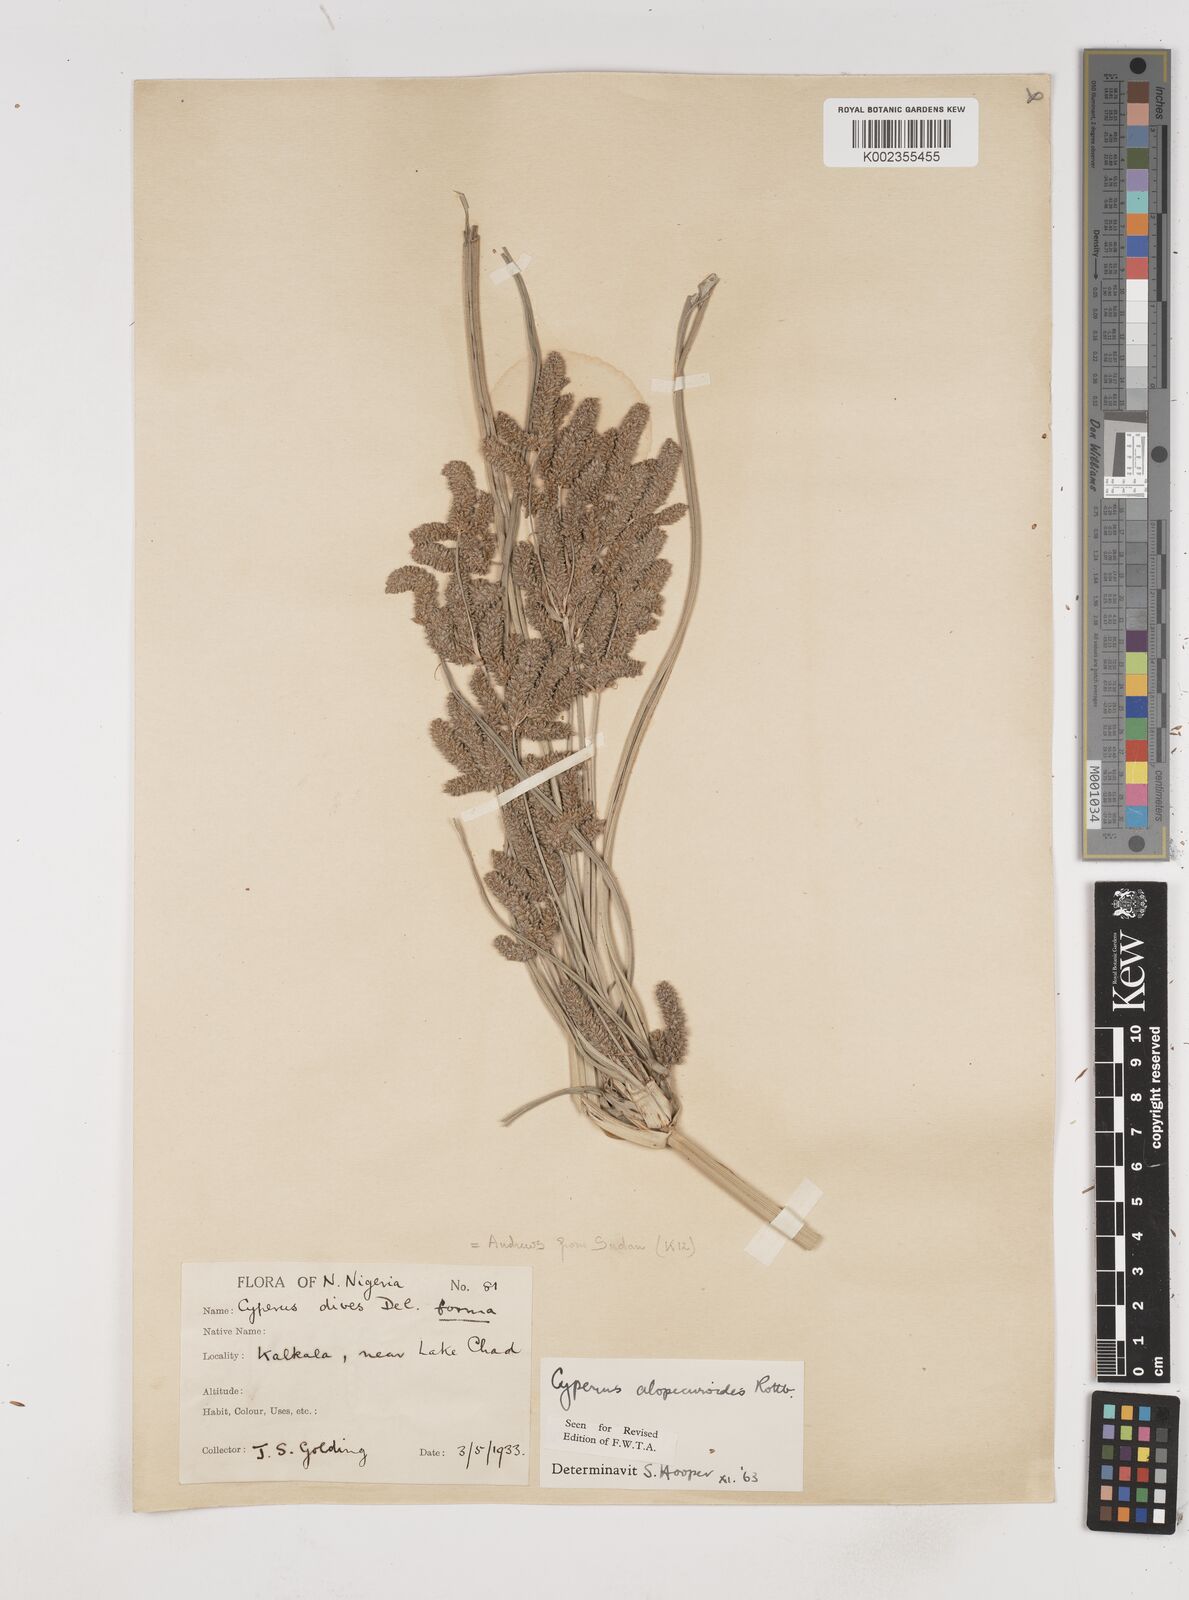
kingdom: Plantae
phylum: Tracheophyta
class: Liliopsida
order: Poales
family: Cyperaceae
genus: Cyperus
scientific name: Cyperus alopecuroides
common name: Foxtail flatsedge
